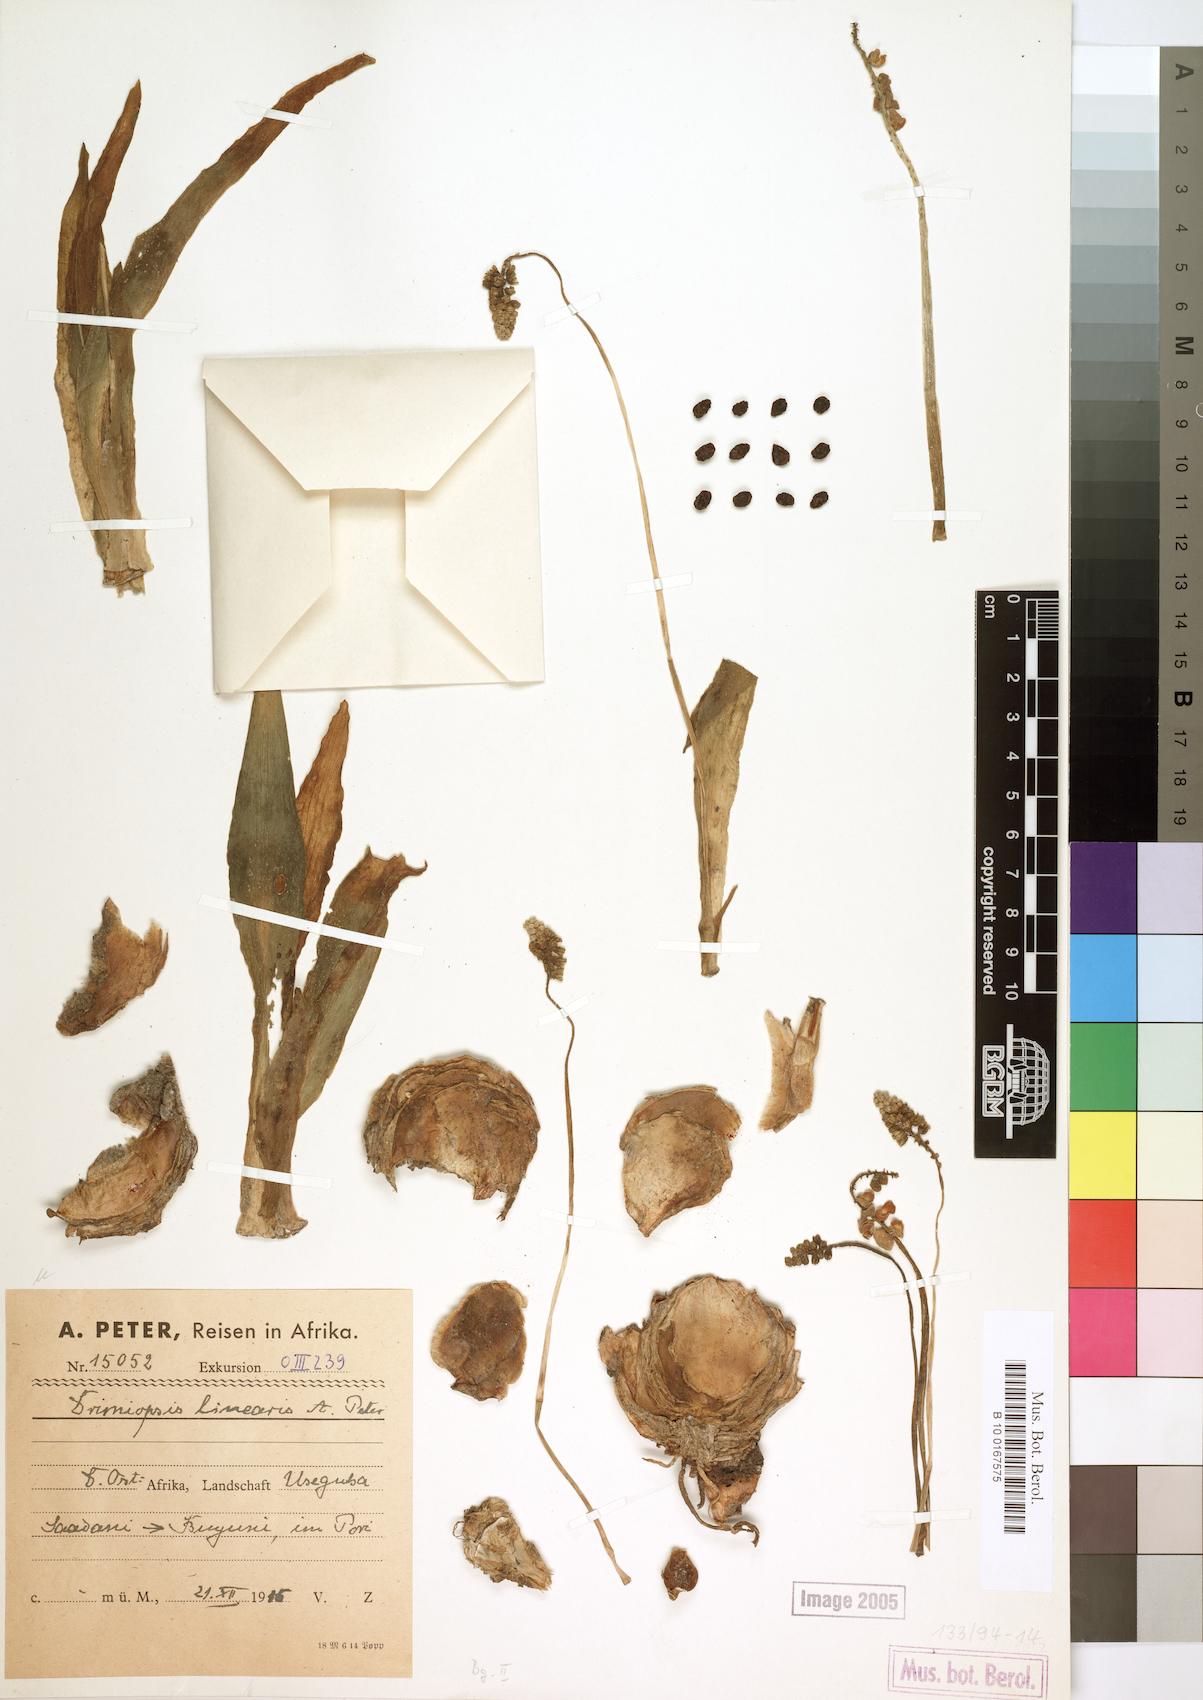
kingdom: Plantae
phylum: Tracheophyta
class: Liliopsida
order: Asparagales
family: Asparagaceae
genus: Drimiopsis
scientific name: Drimiopsis
